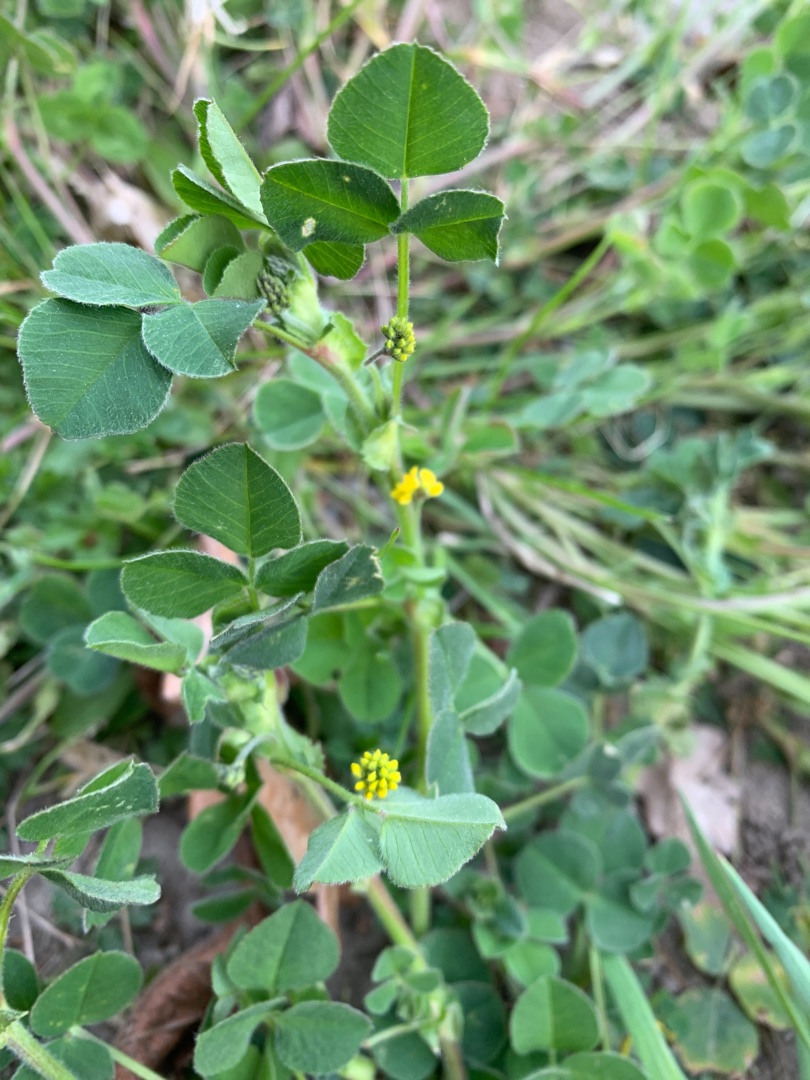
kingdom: Plantae
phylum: Tracheophyta
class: Magnoliopsida
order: Fabales
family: Fabaceae
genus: Medicago
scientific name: Medicago lupulina
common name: Humle-sneglebælg
